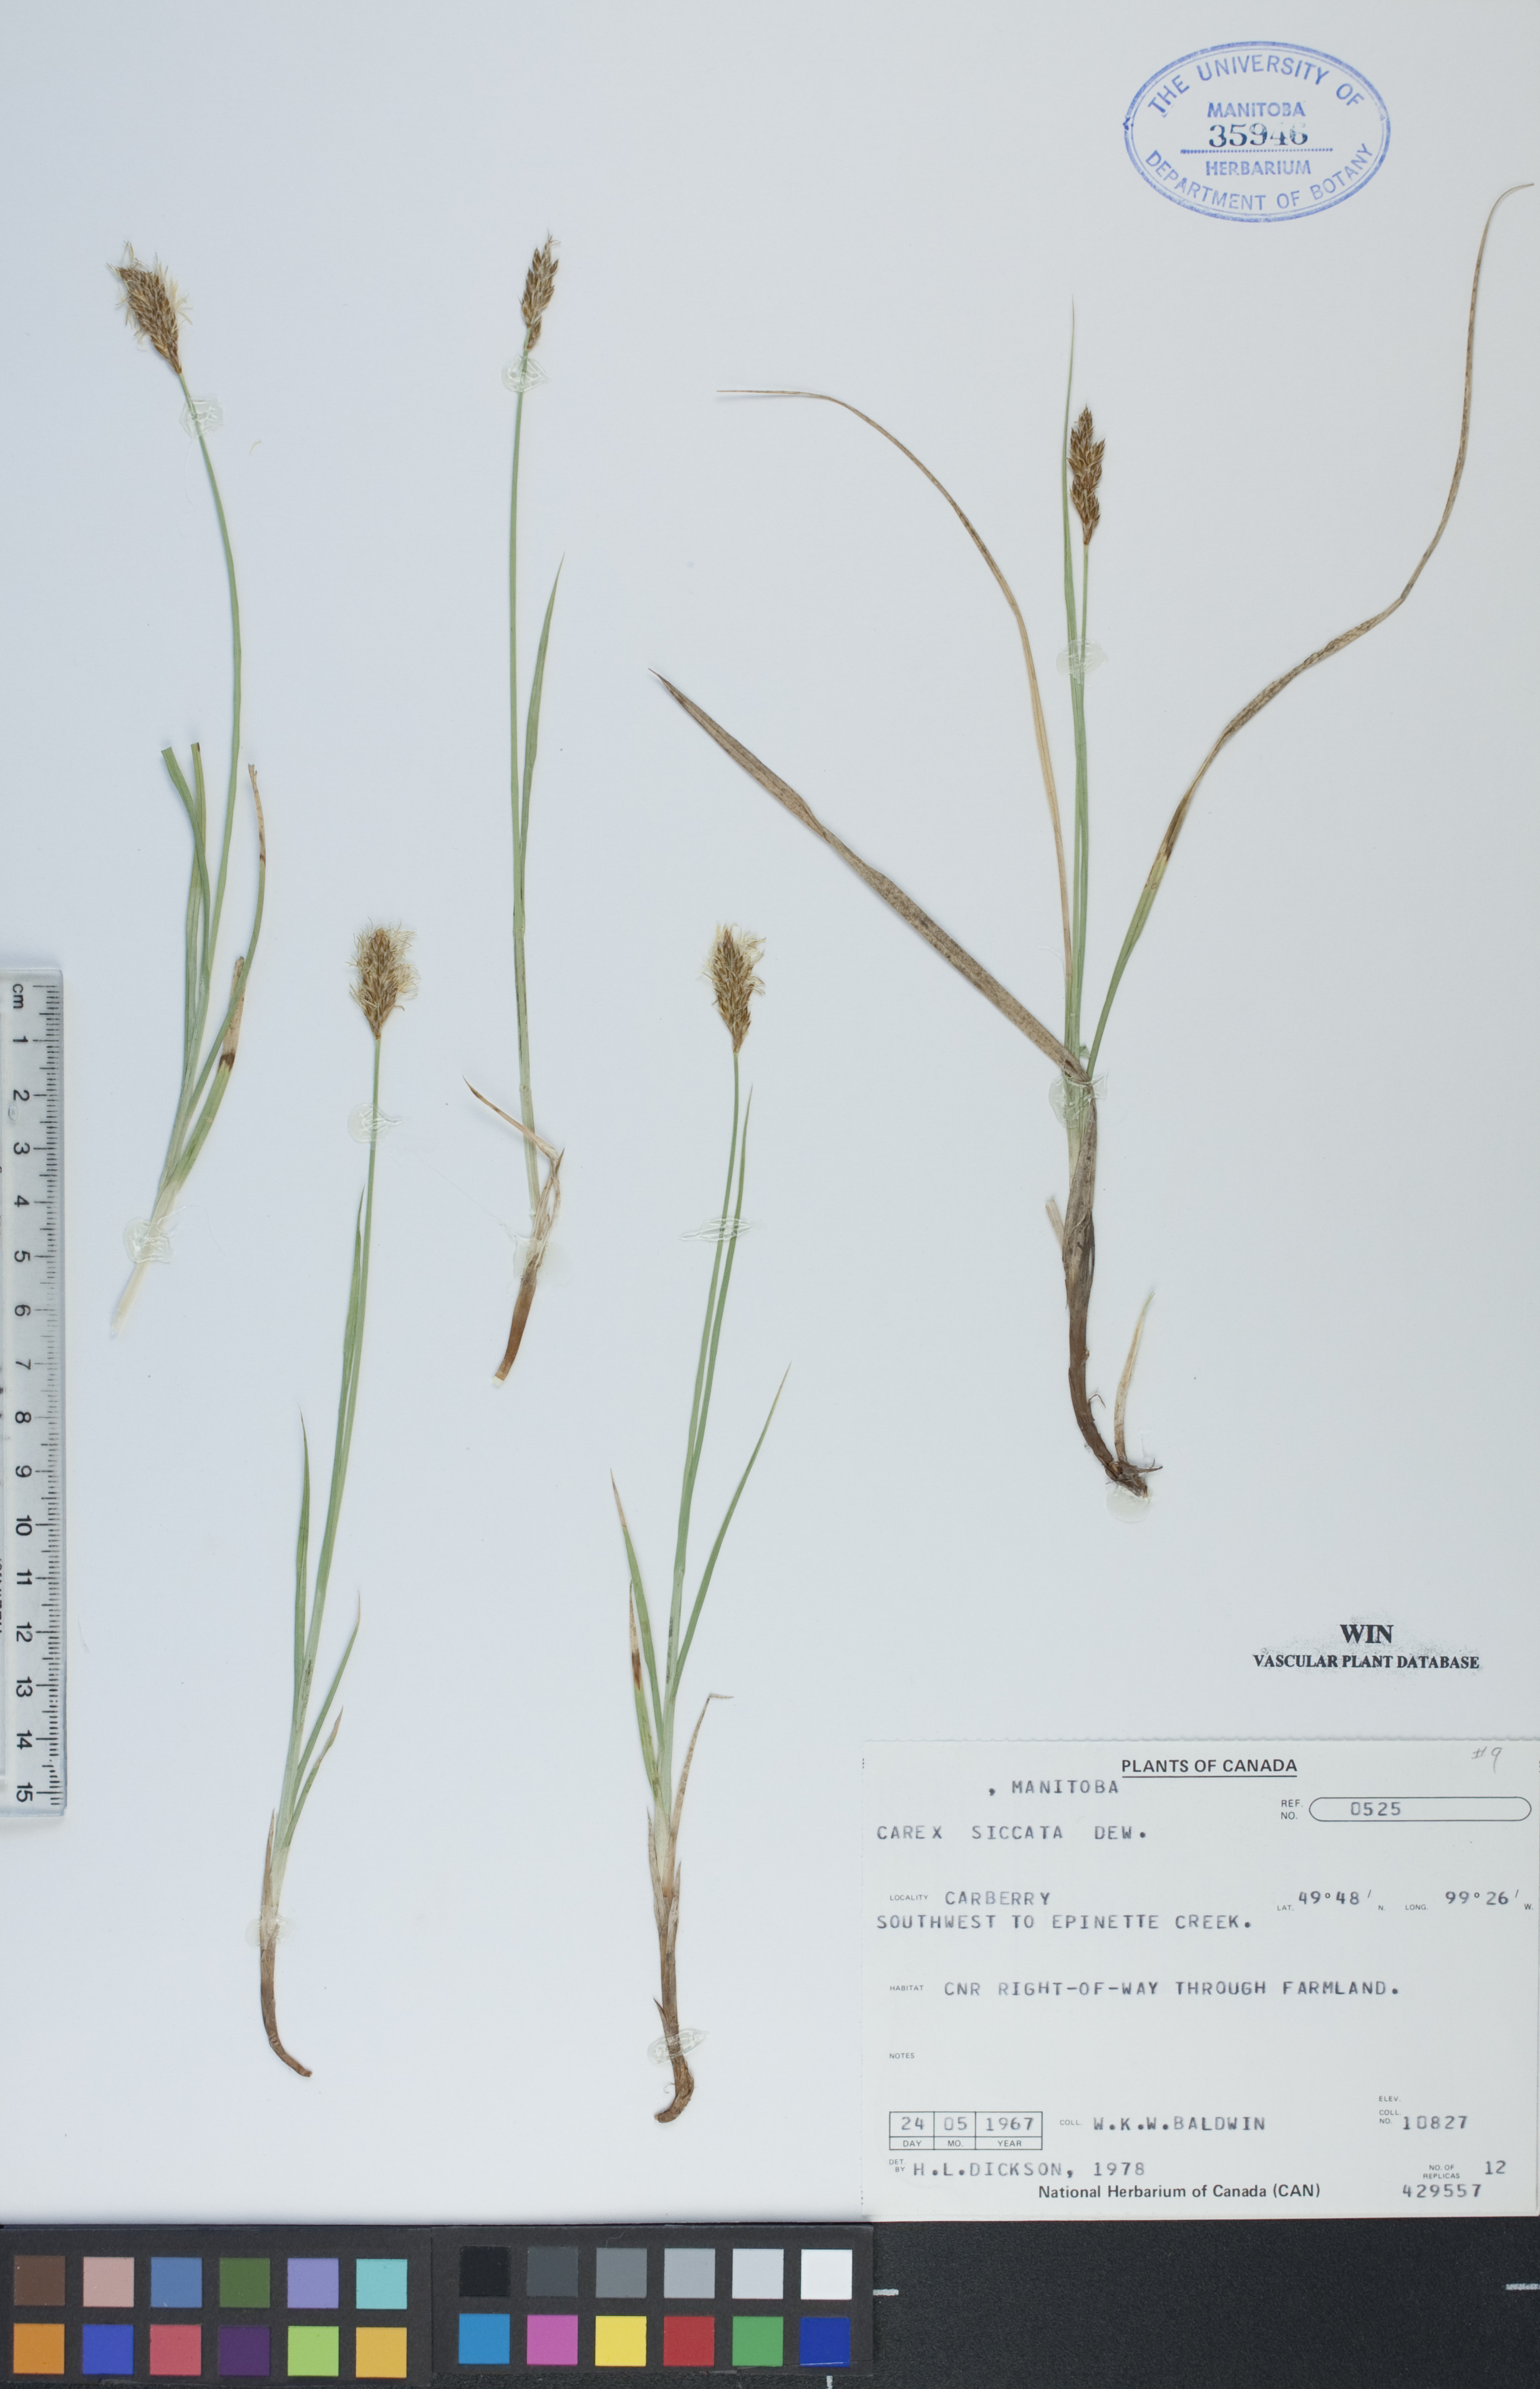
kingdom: Plantae
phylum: Tracheophyta
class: Liliopsida
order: Poales
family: Cyperaceae
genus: Carex
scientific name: Carex siccata
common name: Dry sedge
